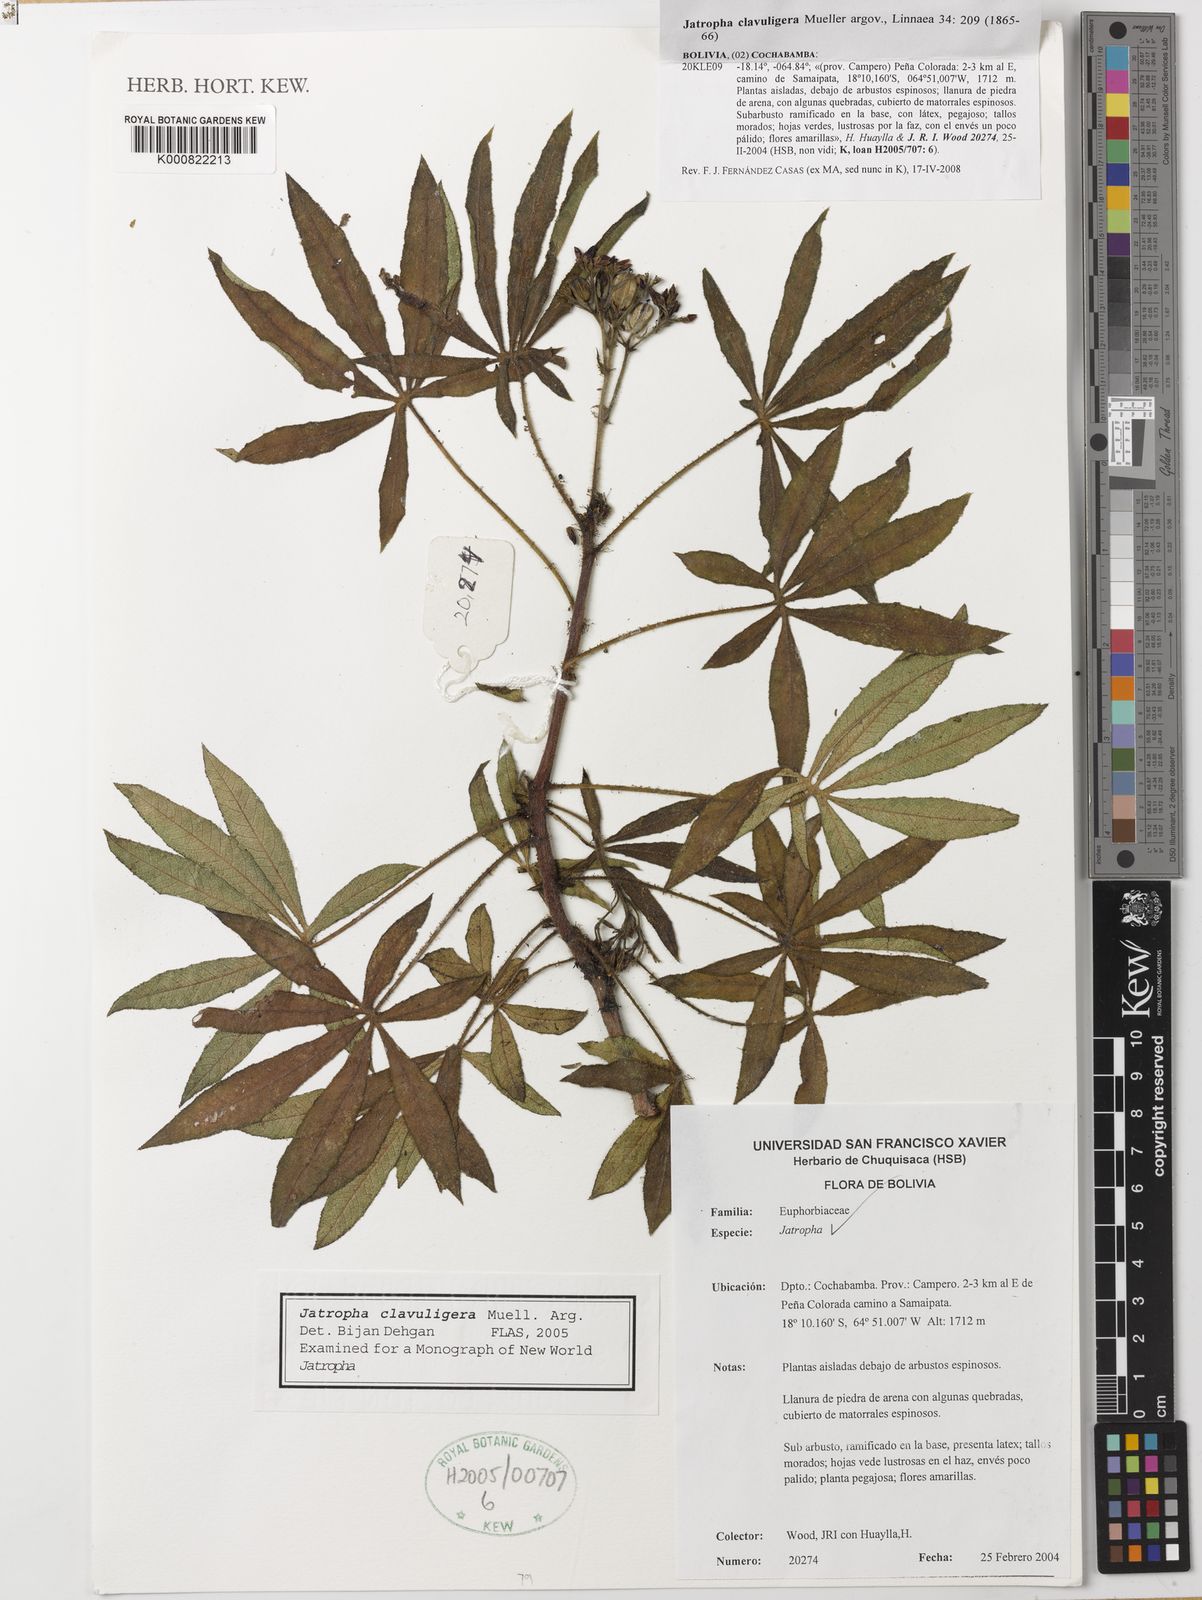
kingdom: Plantae
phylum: Tracheophyta
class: Magnoliopsida
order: Malpighiales
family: Euphorbiaceae
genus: Jatropha
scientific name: Jatropha
